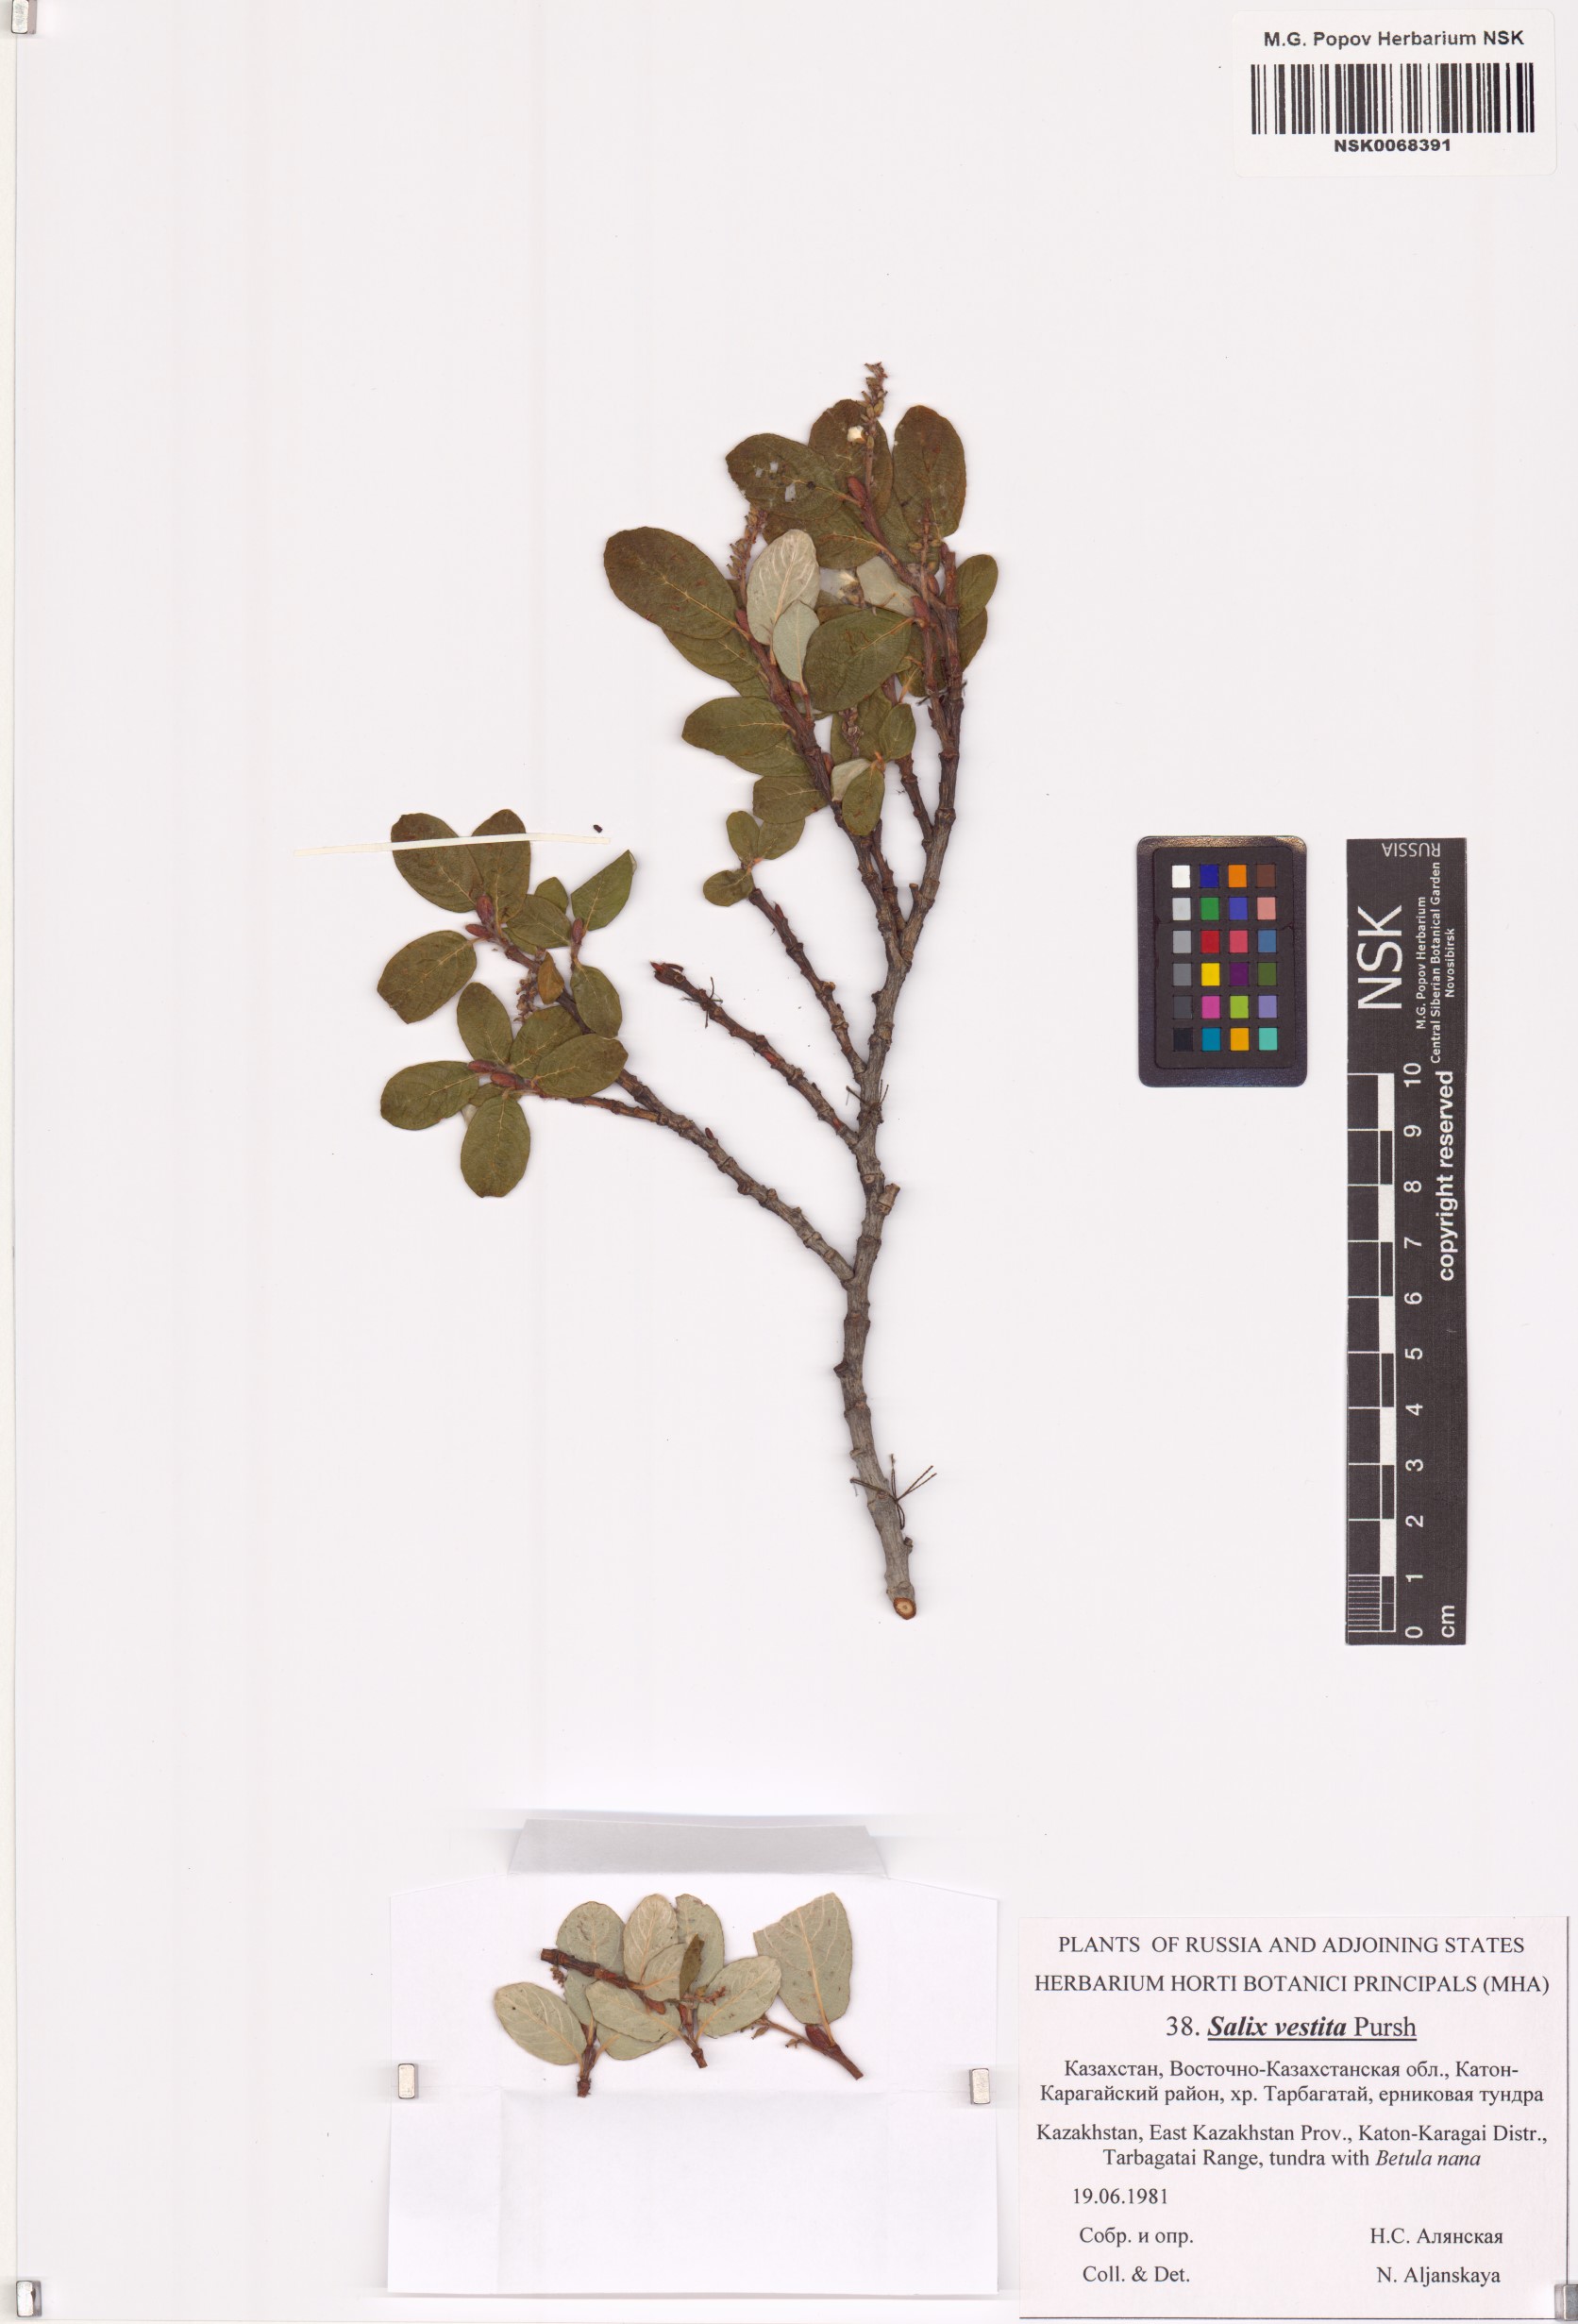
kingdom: Plantae
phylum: Tracheophyta
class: Magnoliopsida
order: Malpighiales
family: Salicaceae
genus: Salix
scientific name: Salix vestita
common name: Hairy willow
